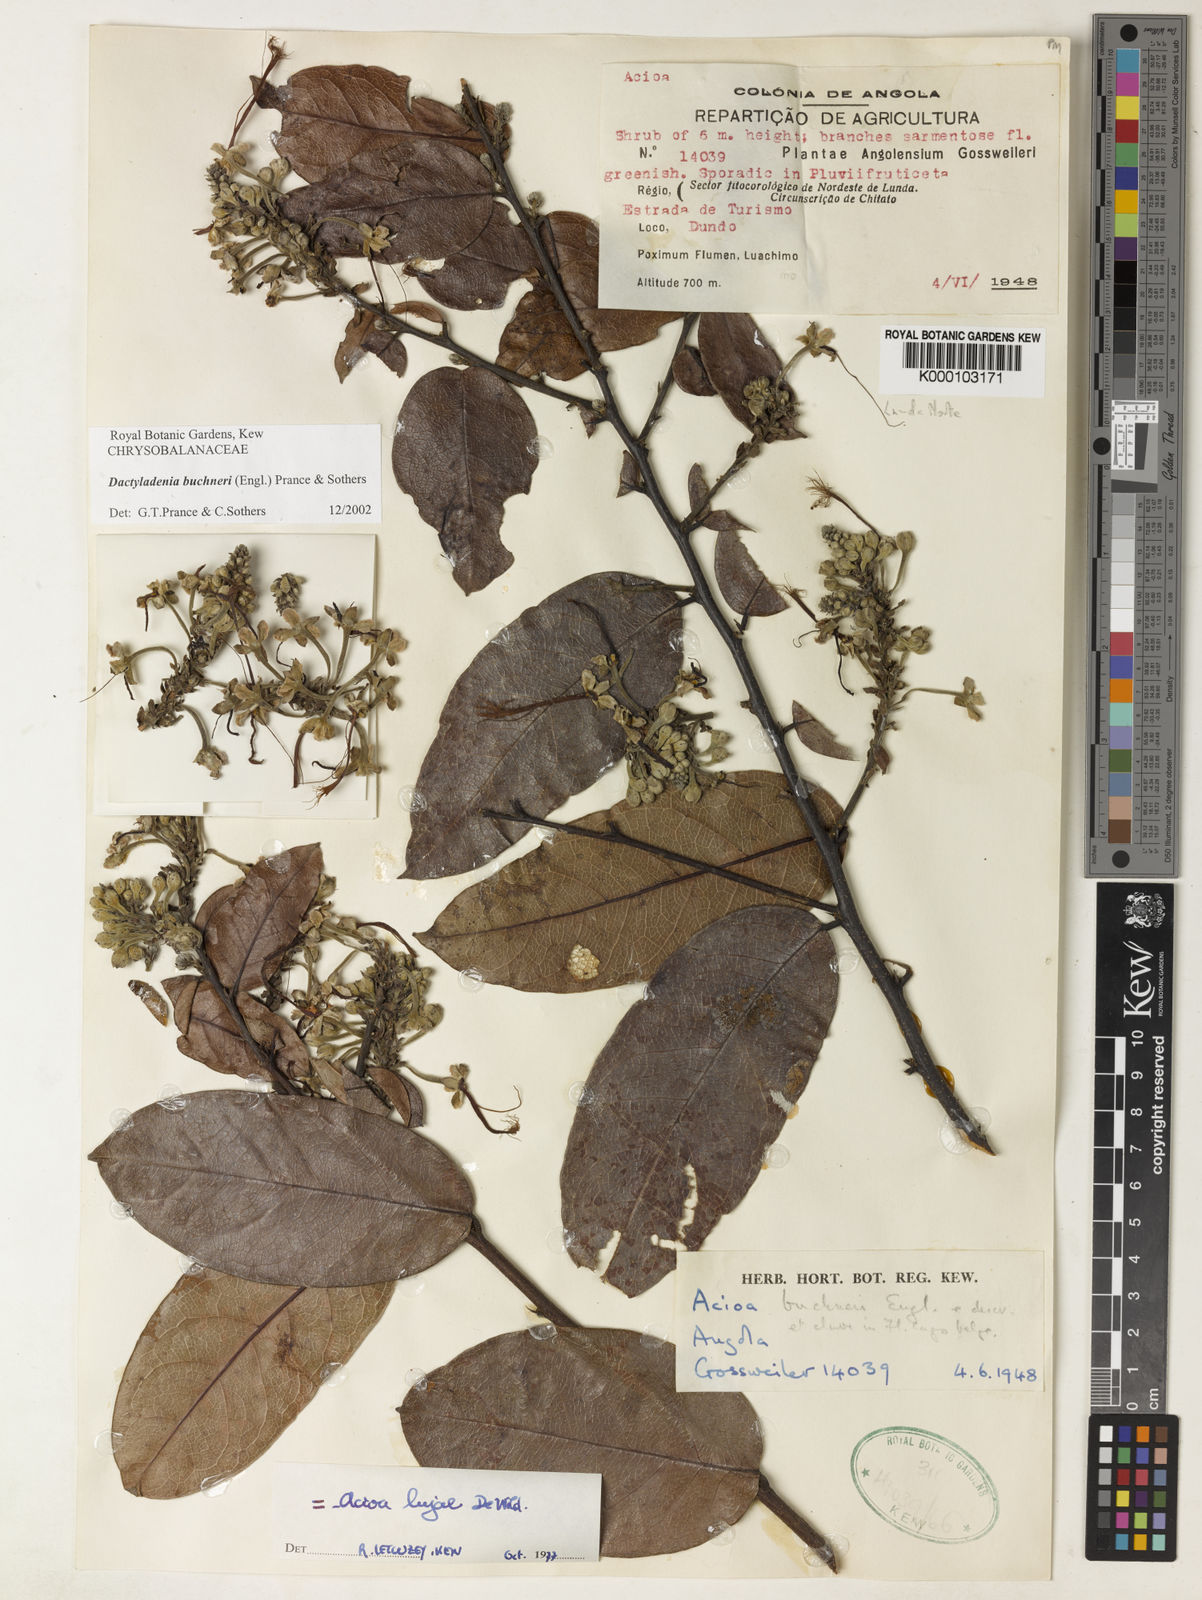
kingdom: Plantae
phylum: Tracheophyta
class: Magnoliopsida
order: Malpighiales
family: Chrysobalanaceae
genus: Dactyladenia
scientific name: Dactyladenia buchneri
